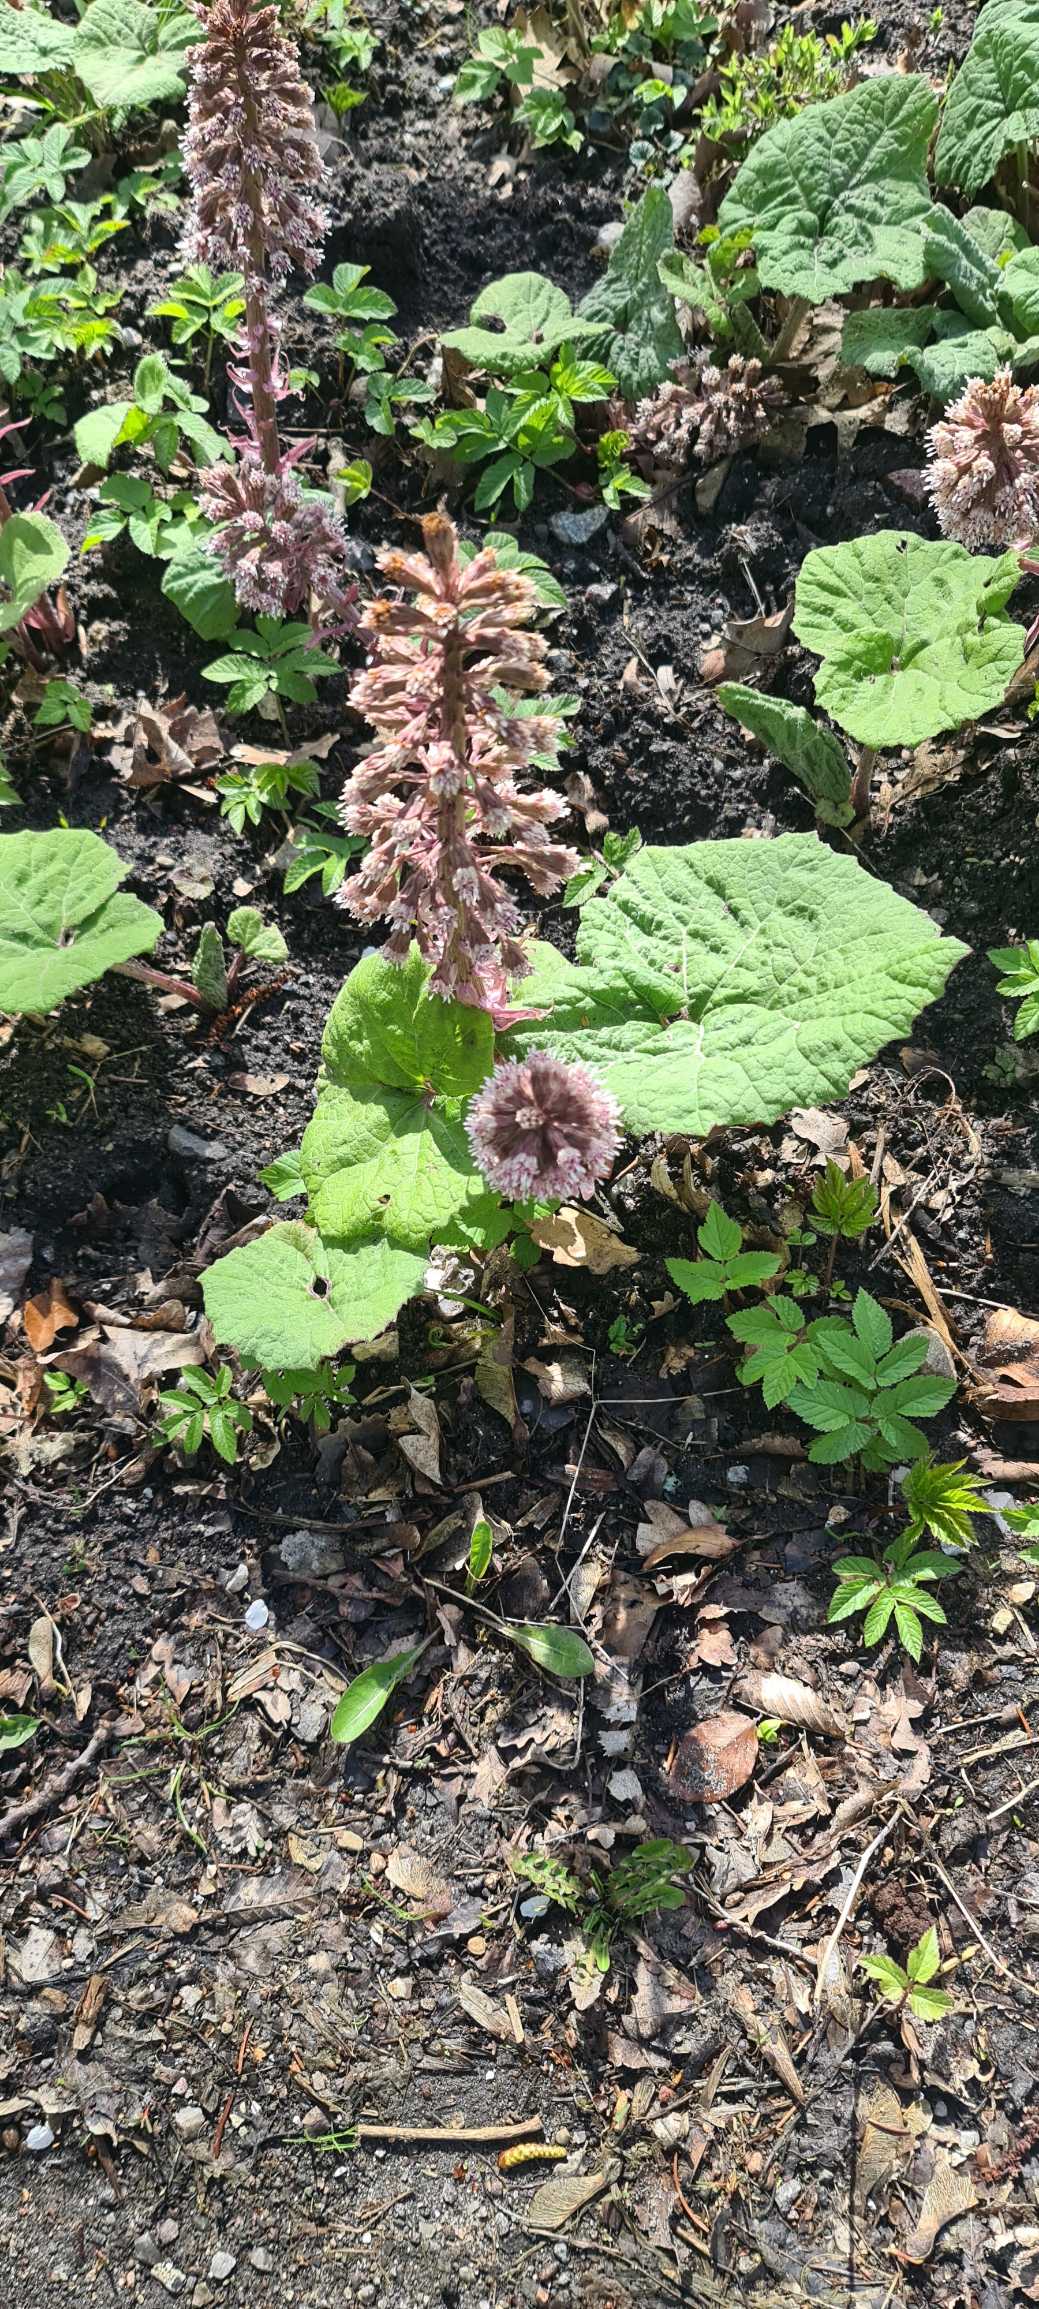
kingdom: Plantae
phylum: Tracheophyta
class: Magnoliopsida
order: Asterales
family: Asteraceae
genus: Petasites
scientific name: Petasites hybridus
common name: Rød hestehov
